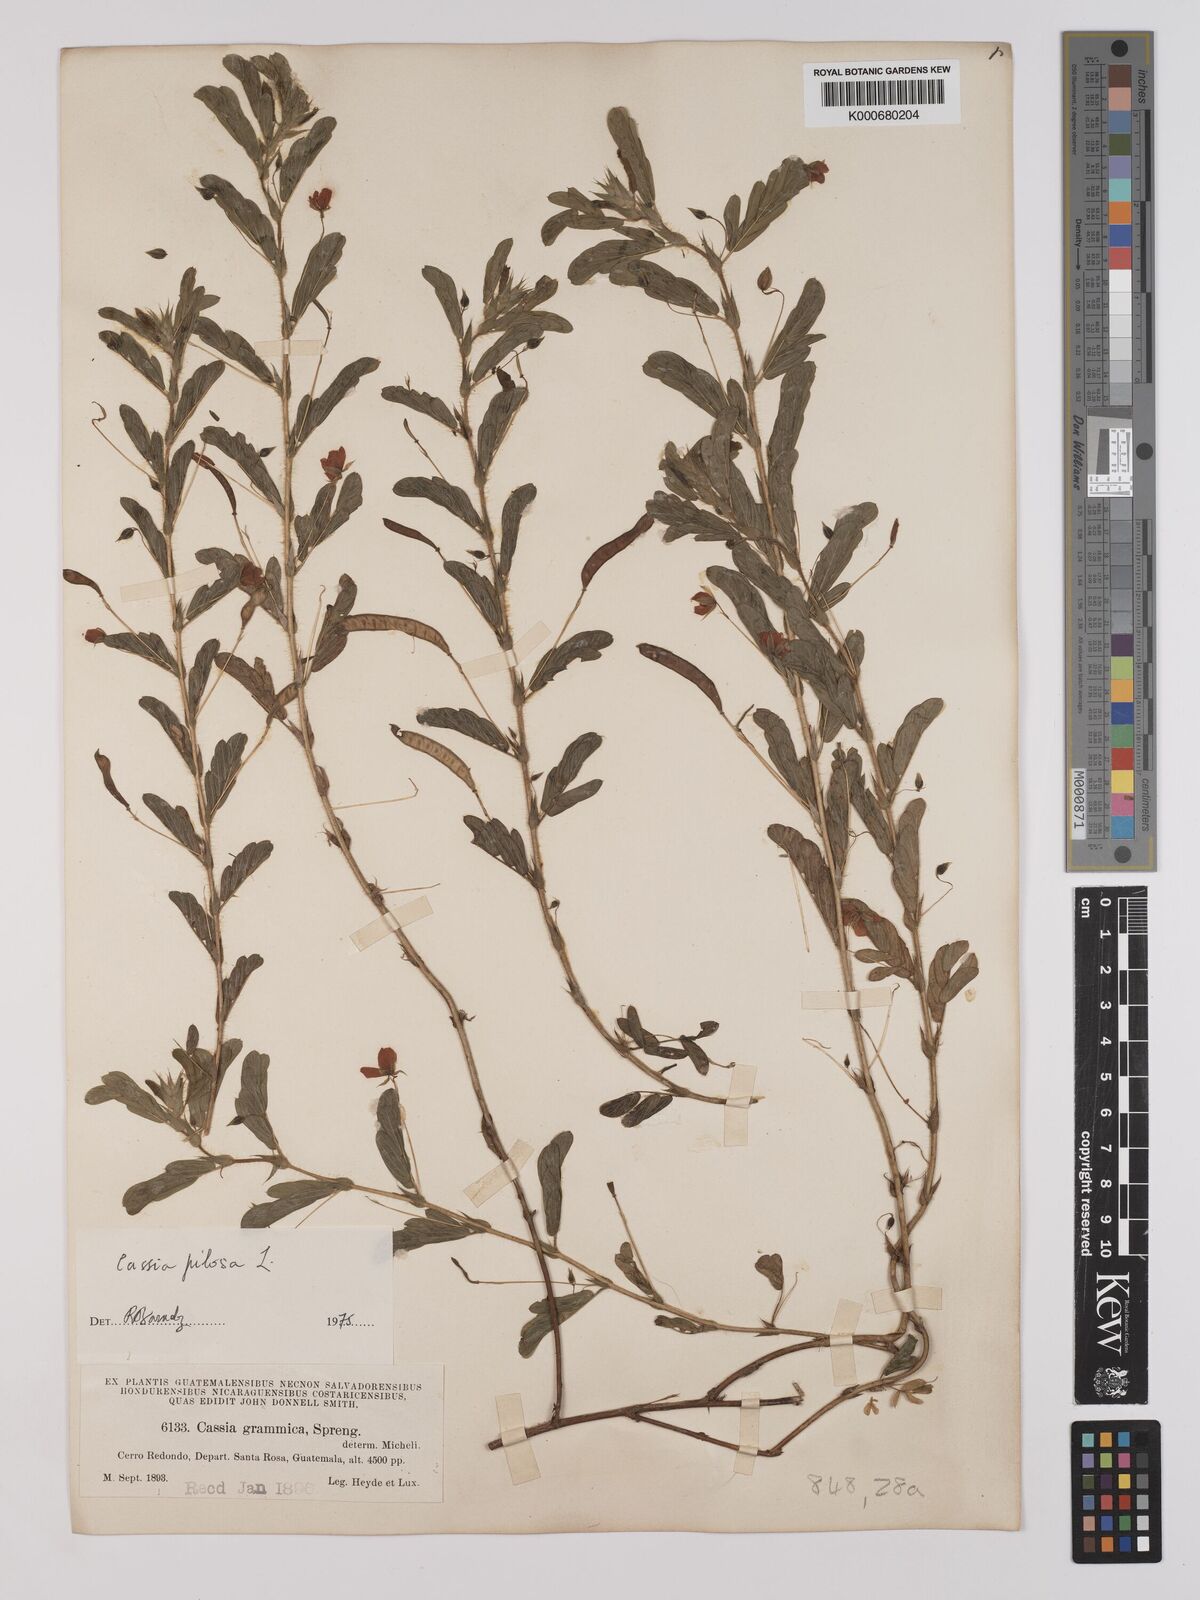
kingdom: Plantae
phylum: Tracheophyta
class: Magnoliopsida
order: Fabales
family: Fabaceae
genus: Chamaecrista
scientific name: Chamaecrista pilosa
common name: Hairy sensitive pea
